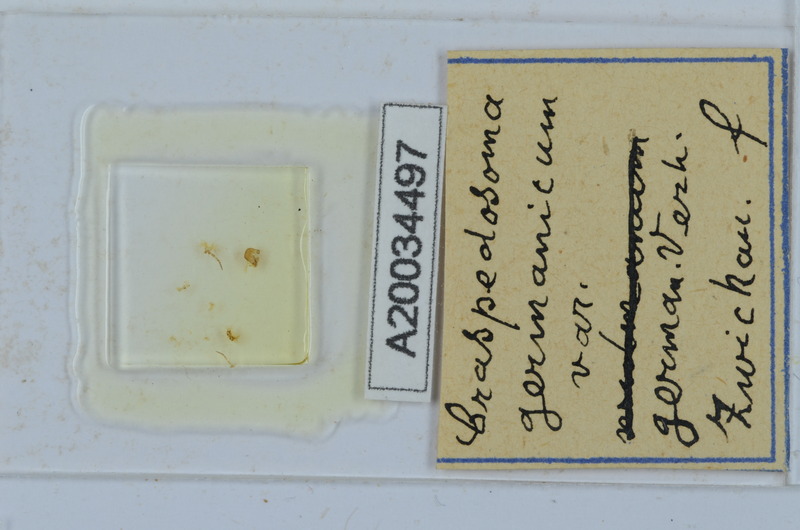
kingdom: Animalia
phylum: Arthropoda
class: Diplopoda
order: Chordeumatida
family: Craspedosomatidae
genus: Craspedosoma
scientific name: Craspedosoma rawlinsii
